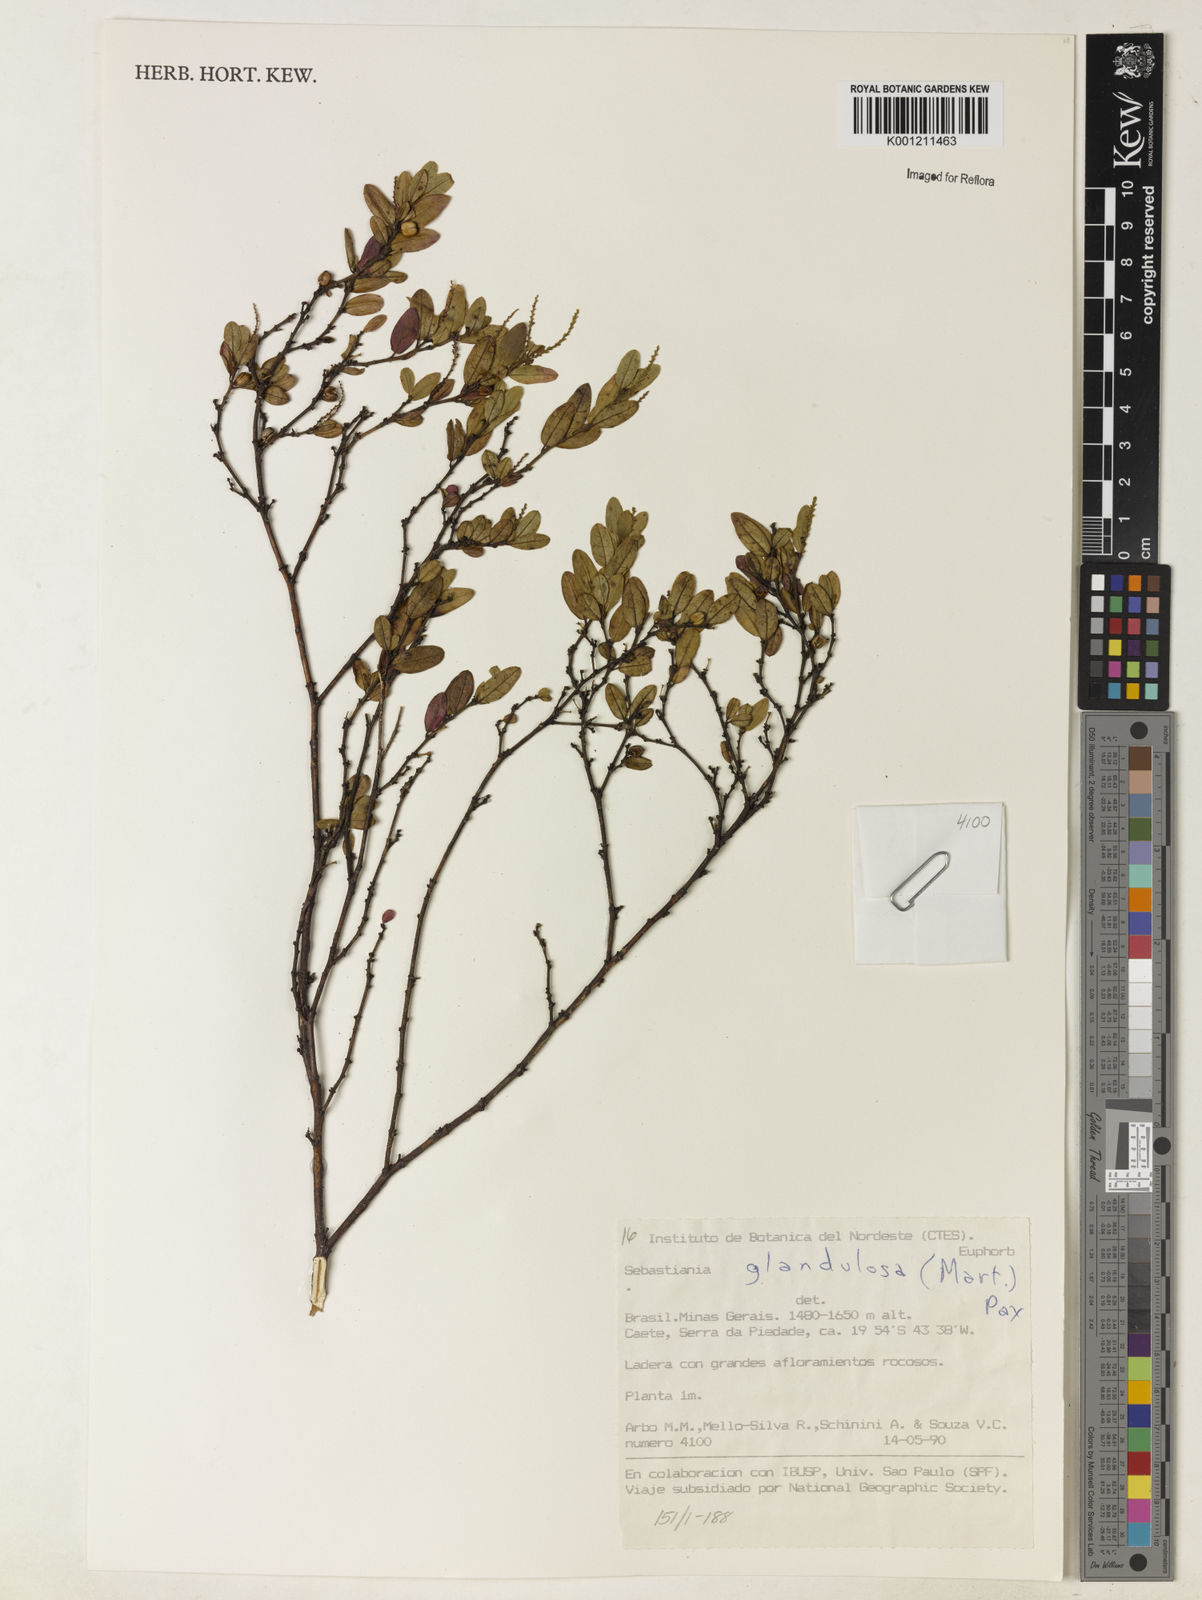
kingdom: Plantae
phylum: Tracheophyta
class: Magnoliopsida
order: Malpighiales
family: Euphorbiaceae
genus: Microstachys
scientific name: Microstachys glandulosa
